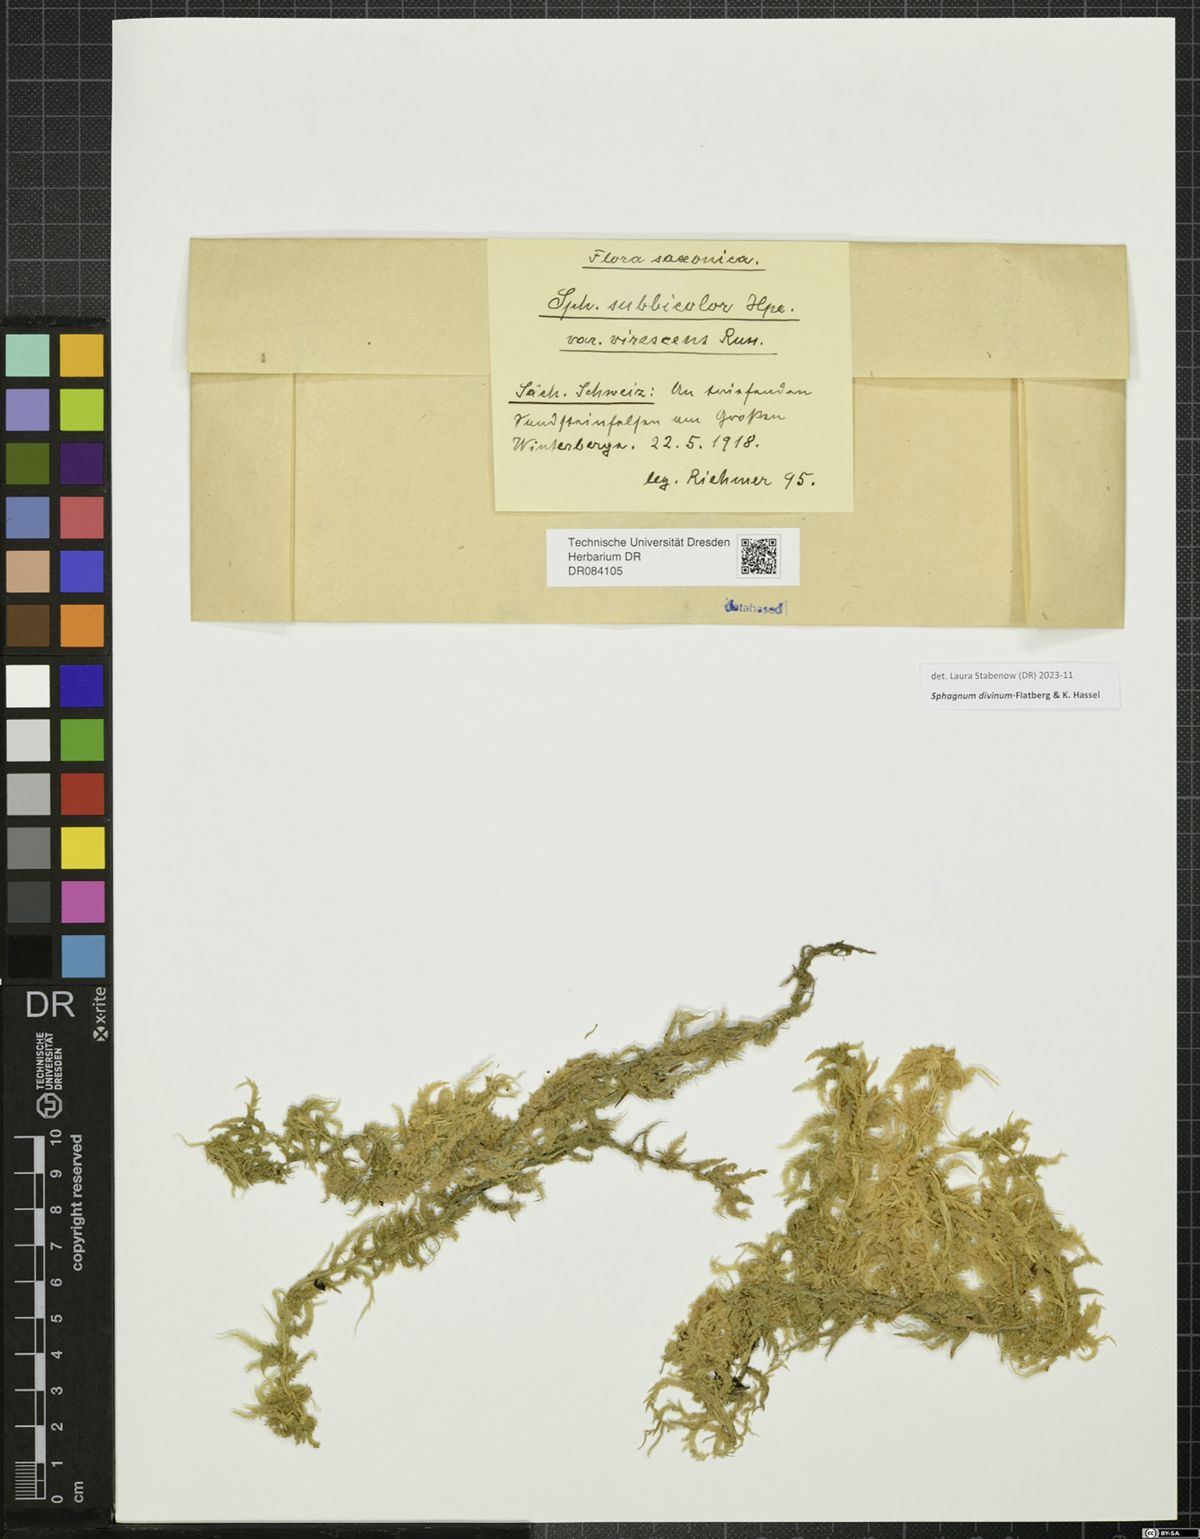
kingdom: Plantae
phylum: Bryophyta
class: Sphagnopsida
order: Sphagnales
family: Sphagnaceae
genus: Sphagnum
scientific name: Sphagnum divinum
